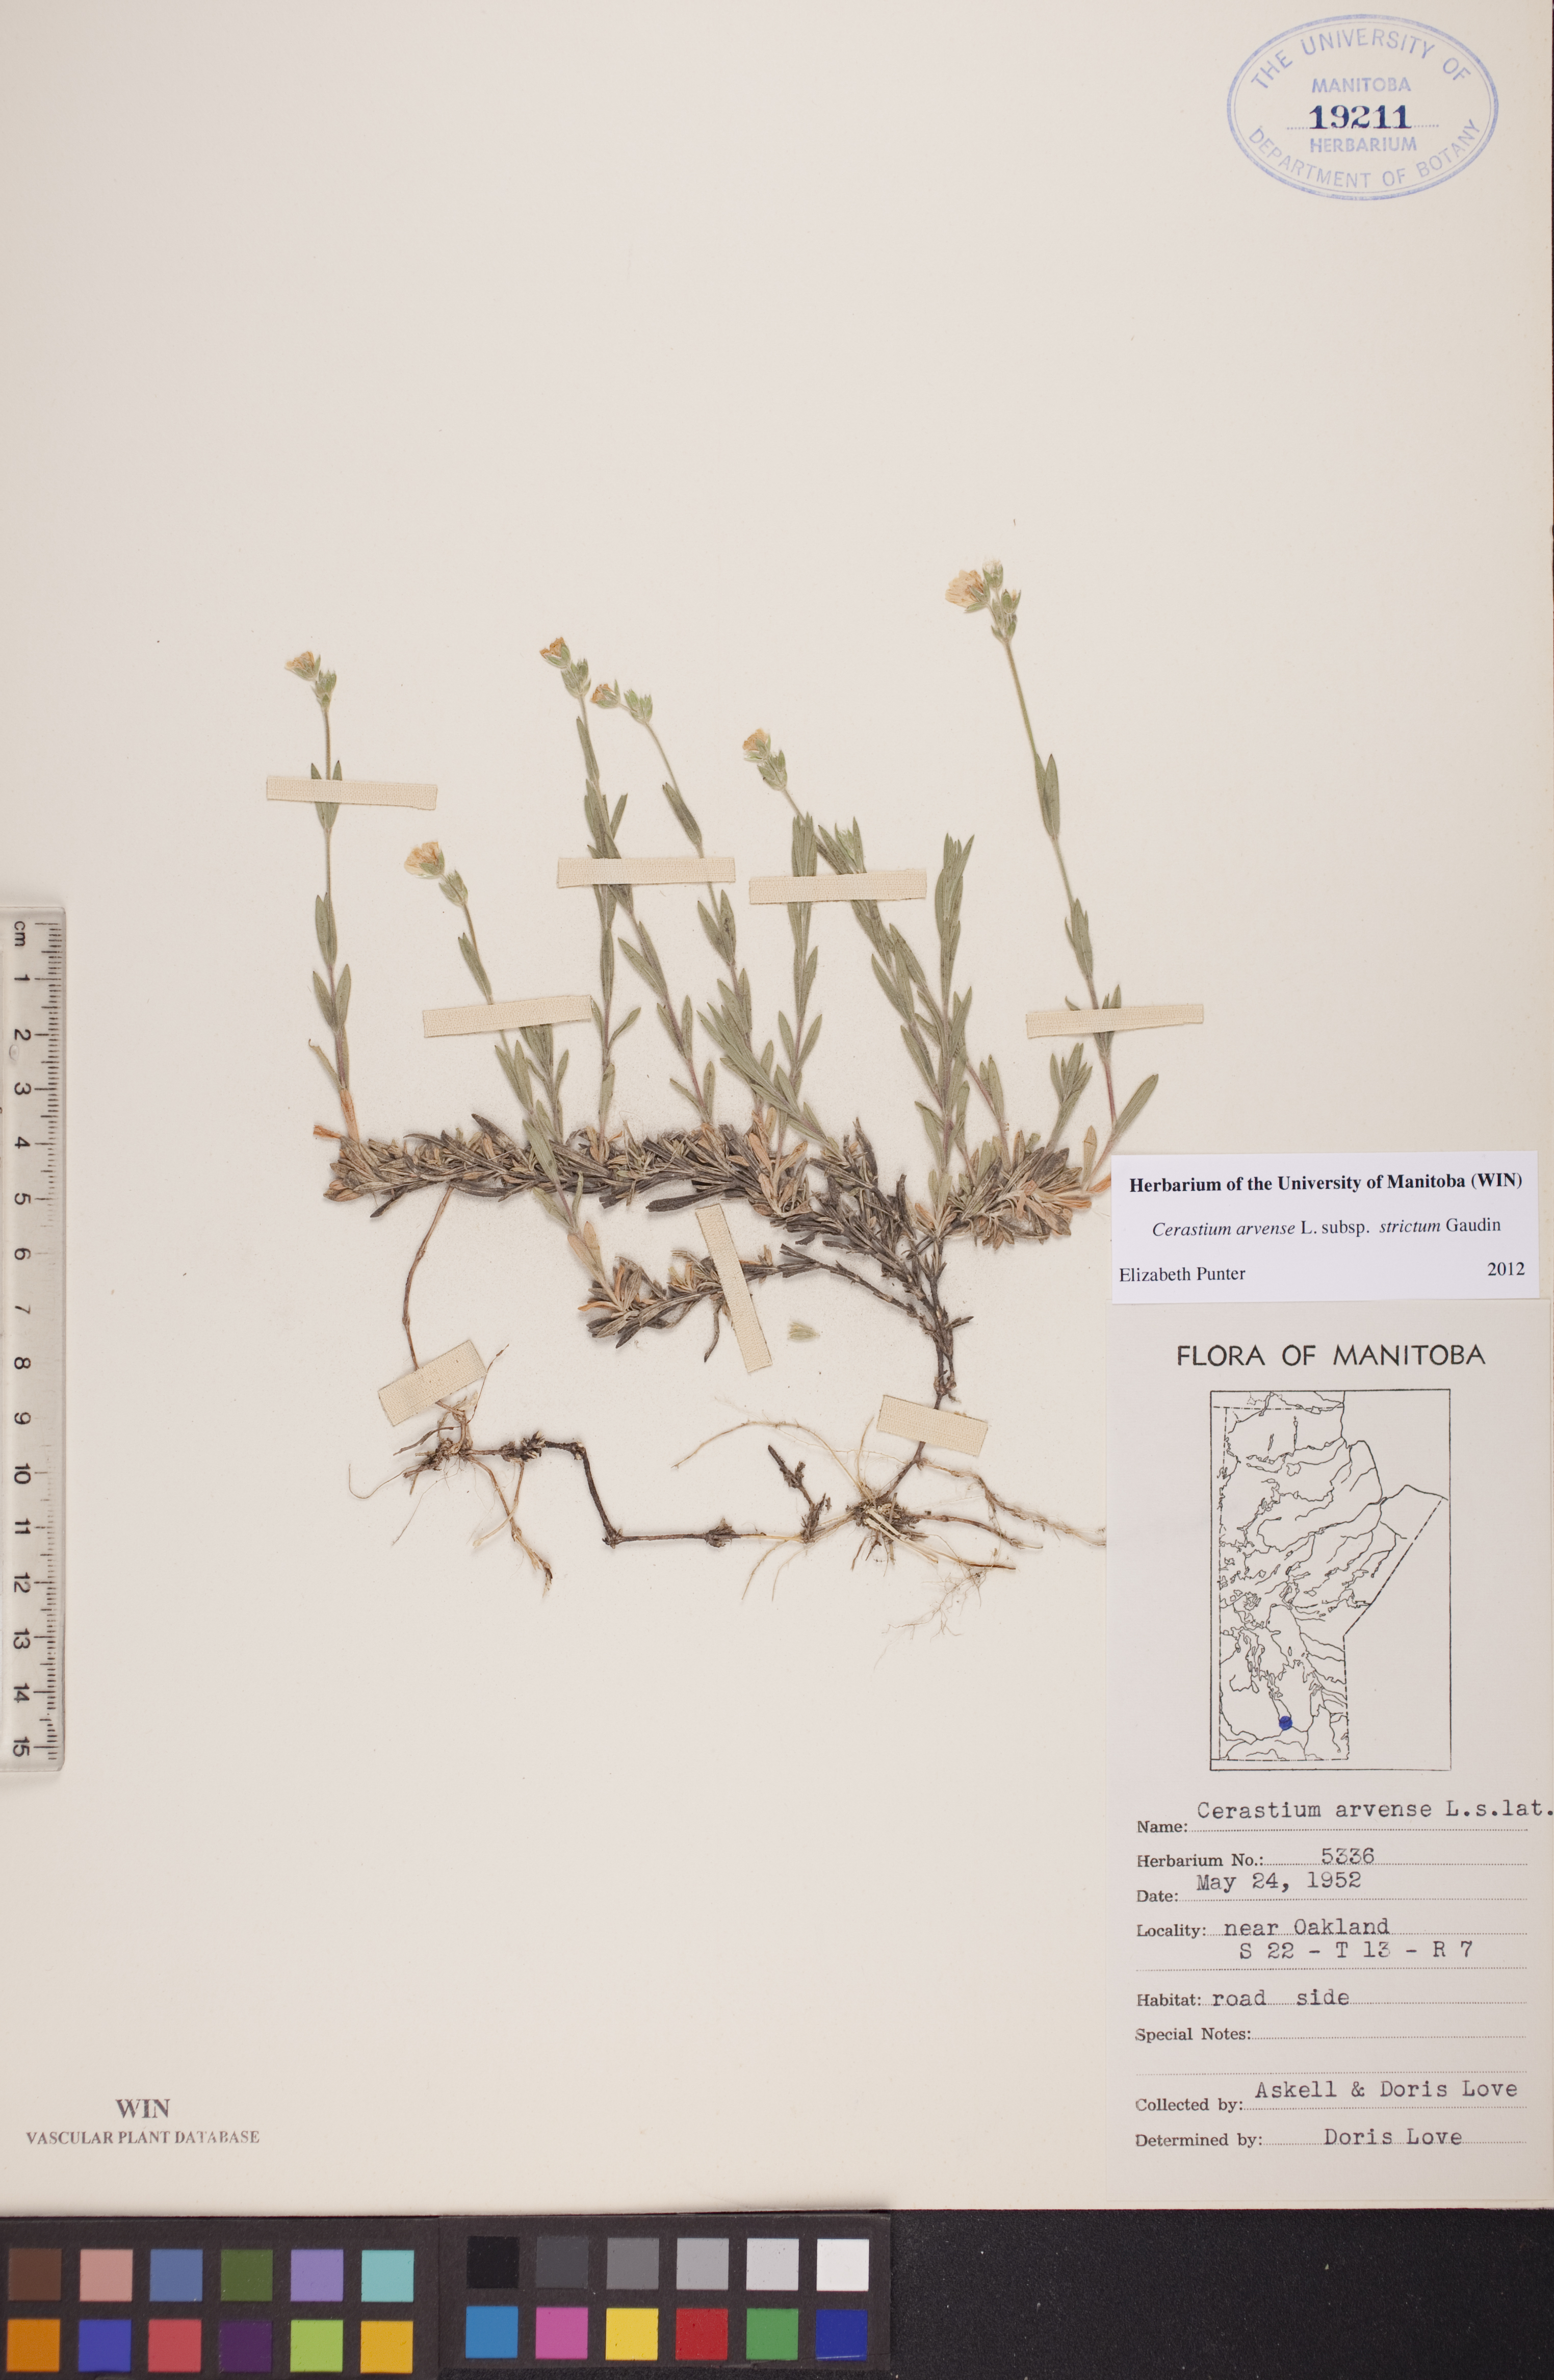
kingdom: Plantae
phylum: Tracheophyta
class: Magnoliopsida
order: Caryophyllales
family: Caryophyllaceae
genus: Cerastium
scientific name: Cerastium elongatum
